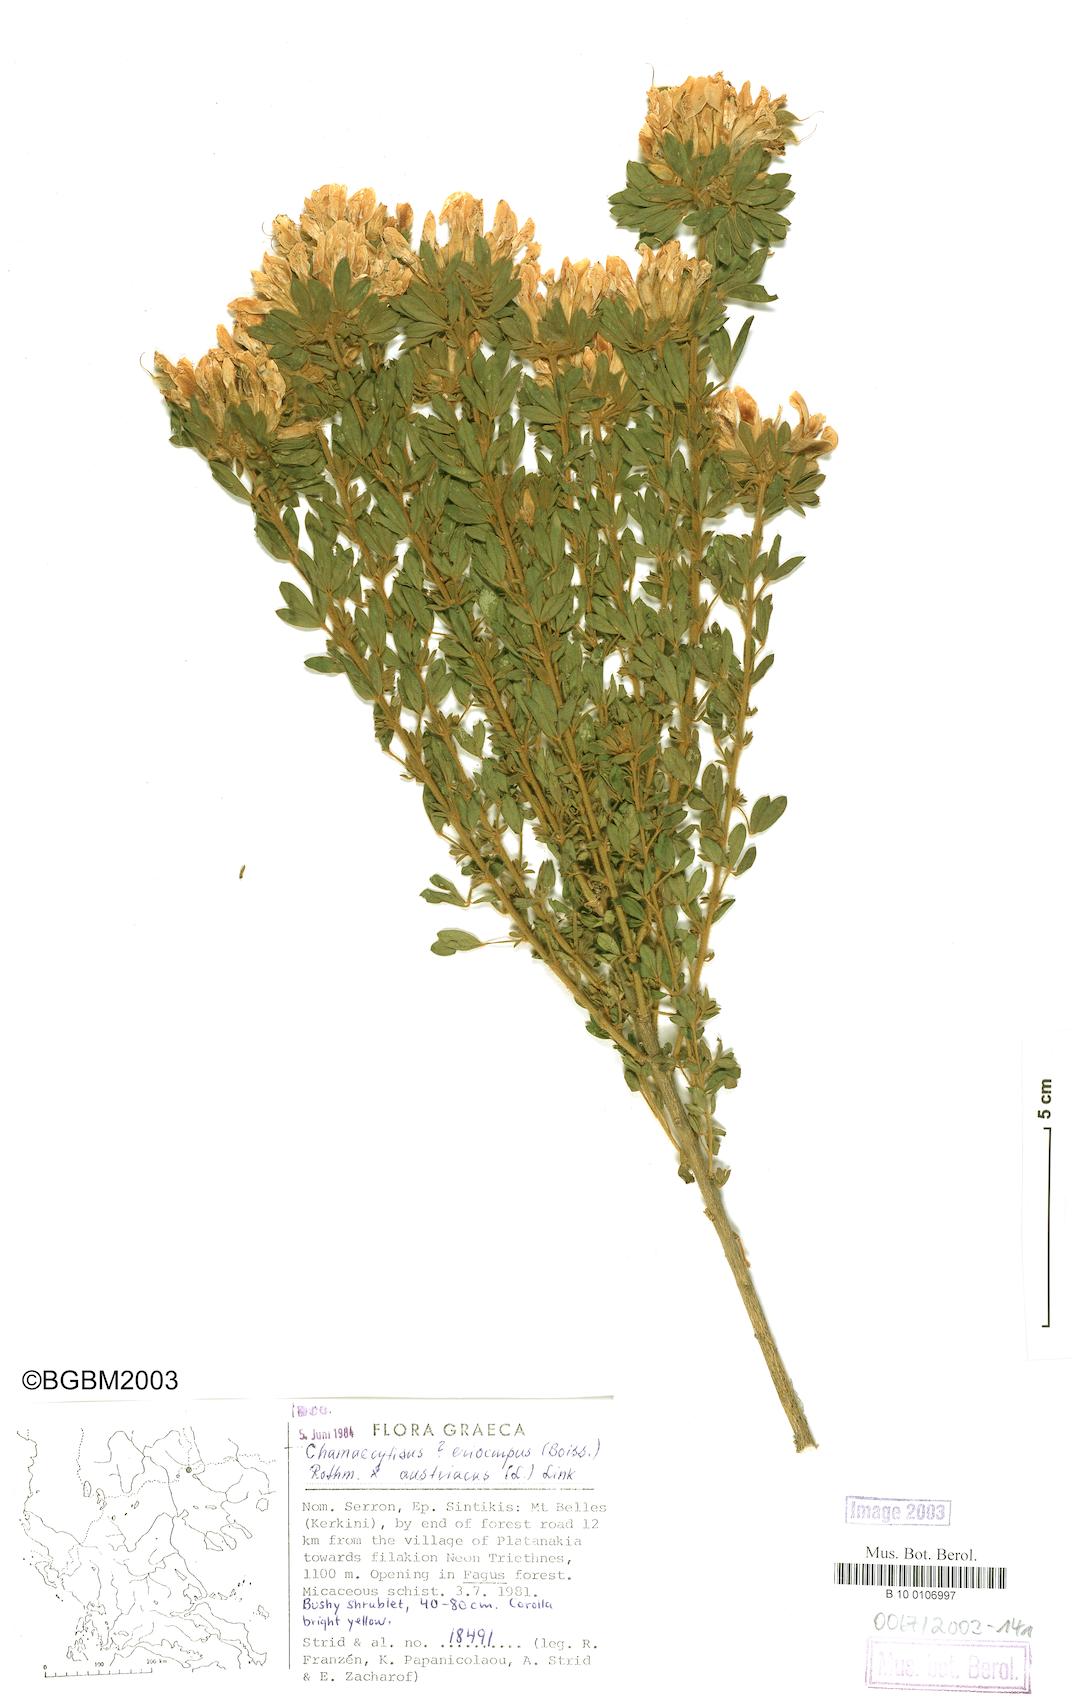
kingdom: Plantae
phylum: Tracheophyta
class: Magnoliopsida
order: Fabales
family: Fabaceae
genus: Chamaecytisus
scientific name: Chamaecytisus eriocarpus
